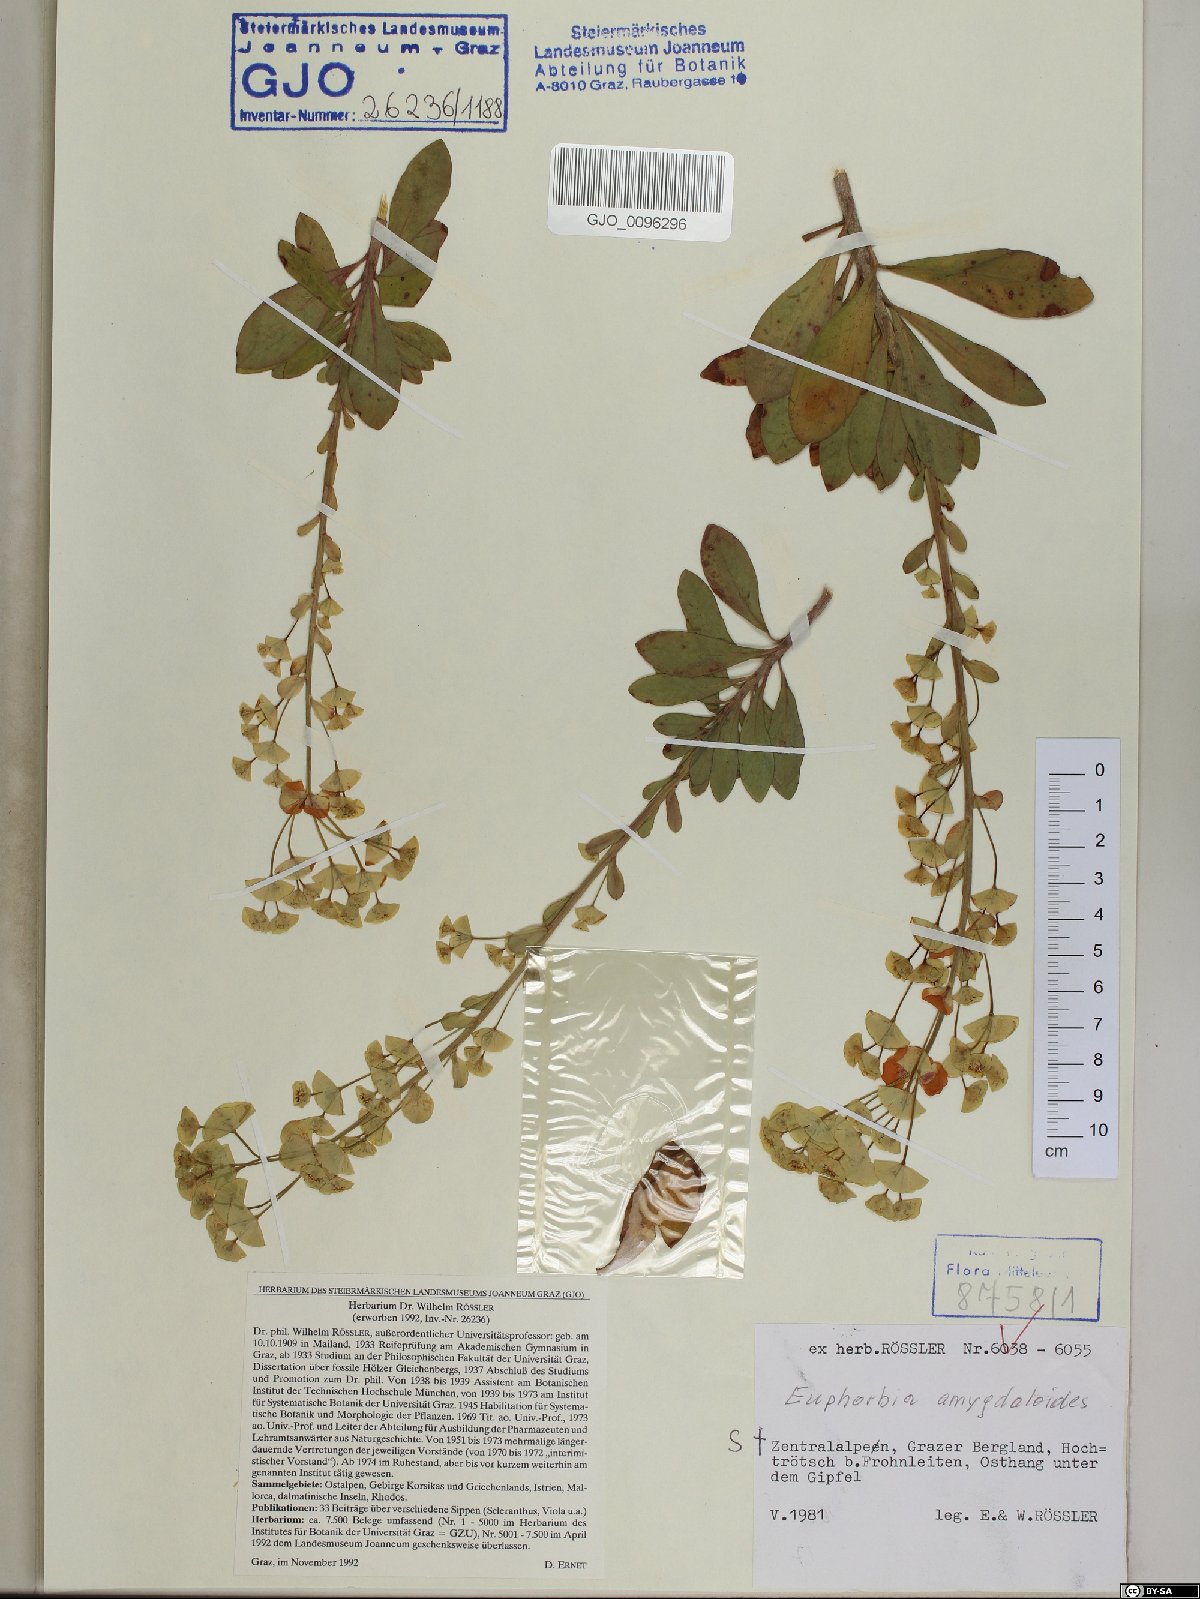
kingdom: Plantae
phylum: Tracheophyta
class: Magnoliopsida
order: Malpighiales
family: Euphorbiaceae
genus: Euphorbia
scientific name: Euphorbia amygdaloides
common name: Wood spurge
